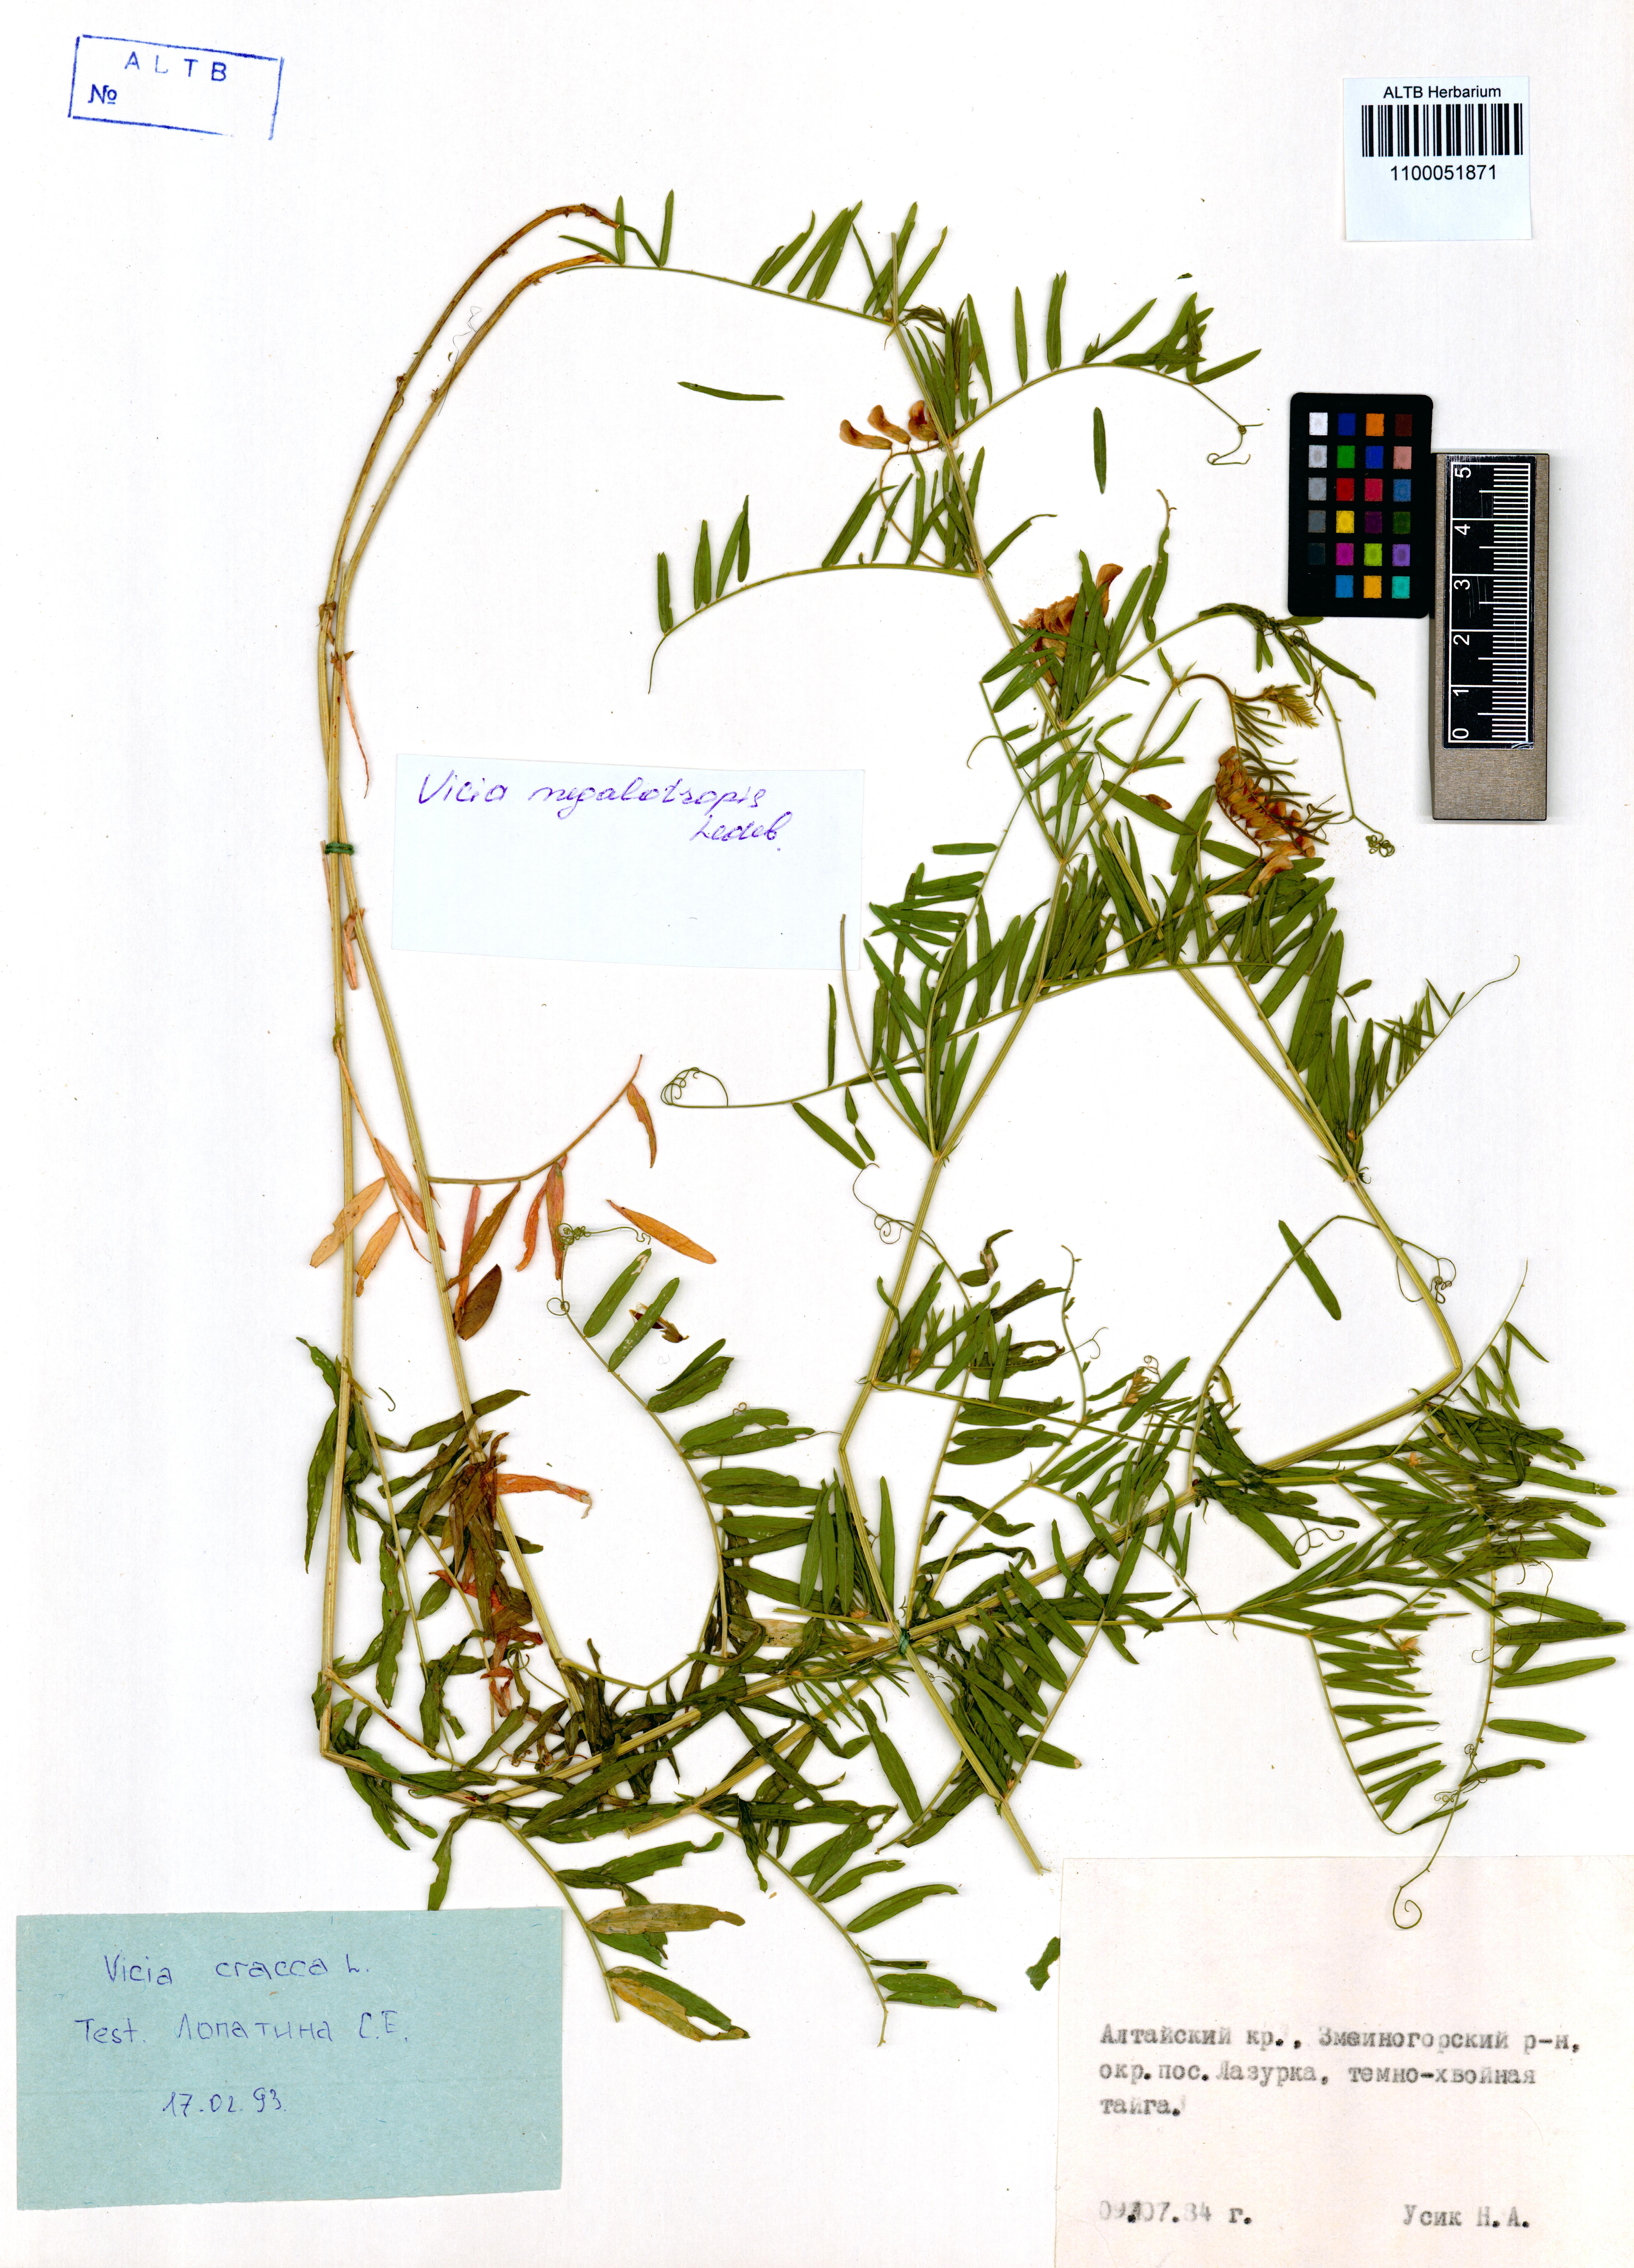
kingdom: Plantae
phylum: Tracheophyta
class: Magnoliopsida
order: Fabales
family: Fabaceae
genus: Vicia
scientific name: Vicia cracca
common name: Bird vetch
